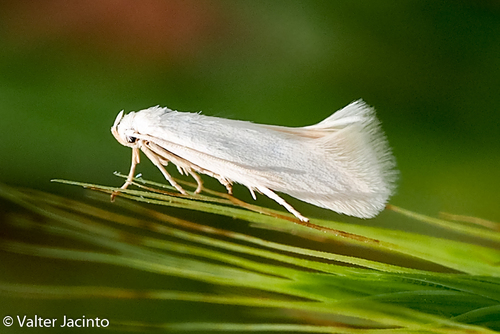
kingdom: Animalia
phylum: Arthropoda
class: Insecta
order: Lepidoptera
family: Elachistidae
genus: Elachista
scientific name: Elachista nuraghella
